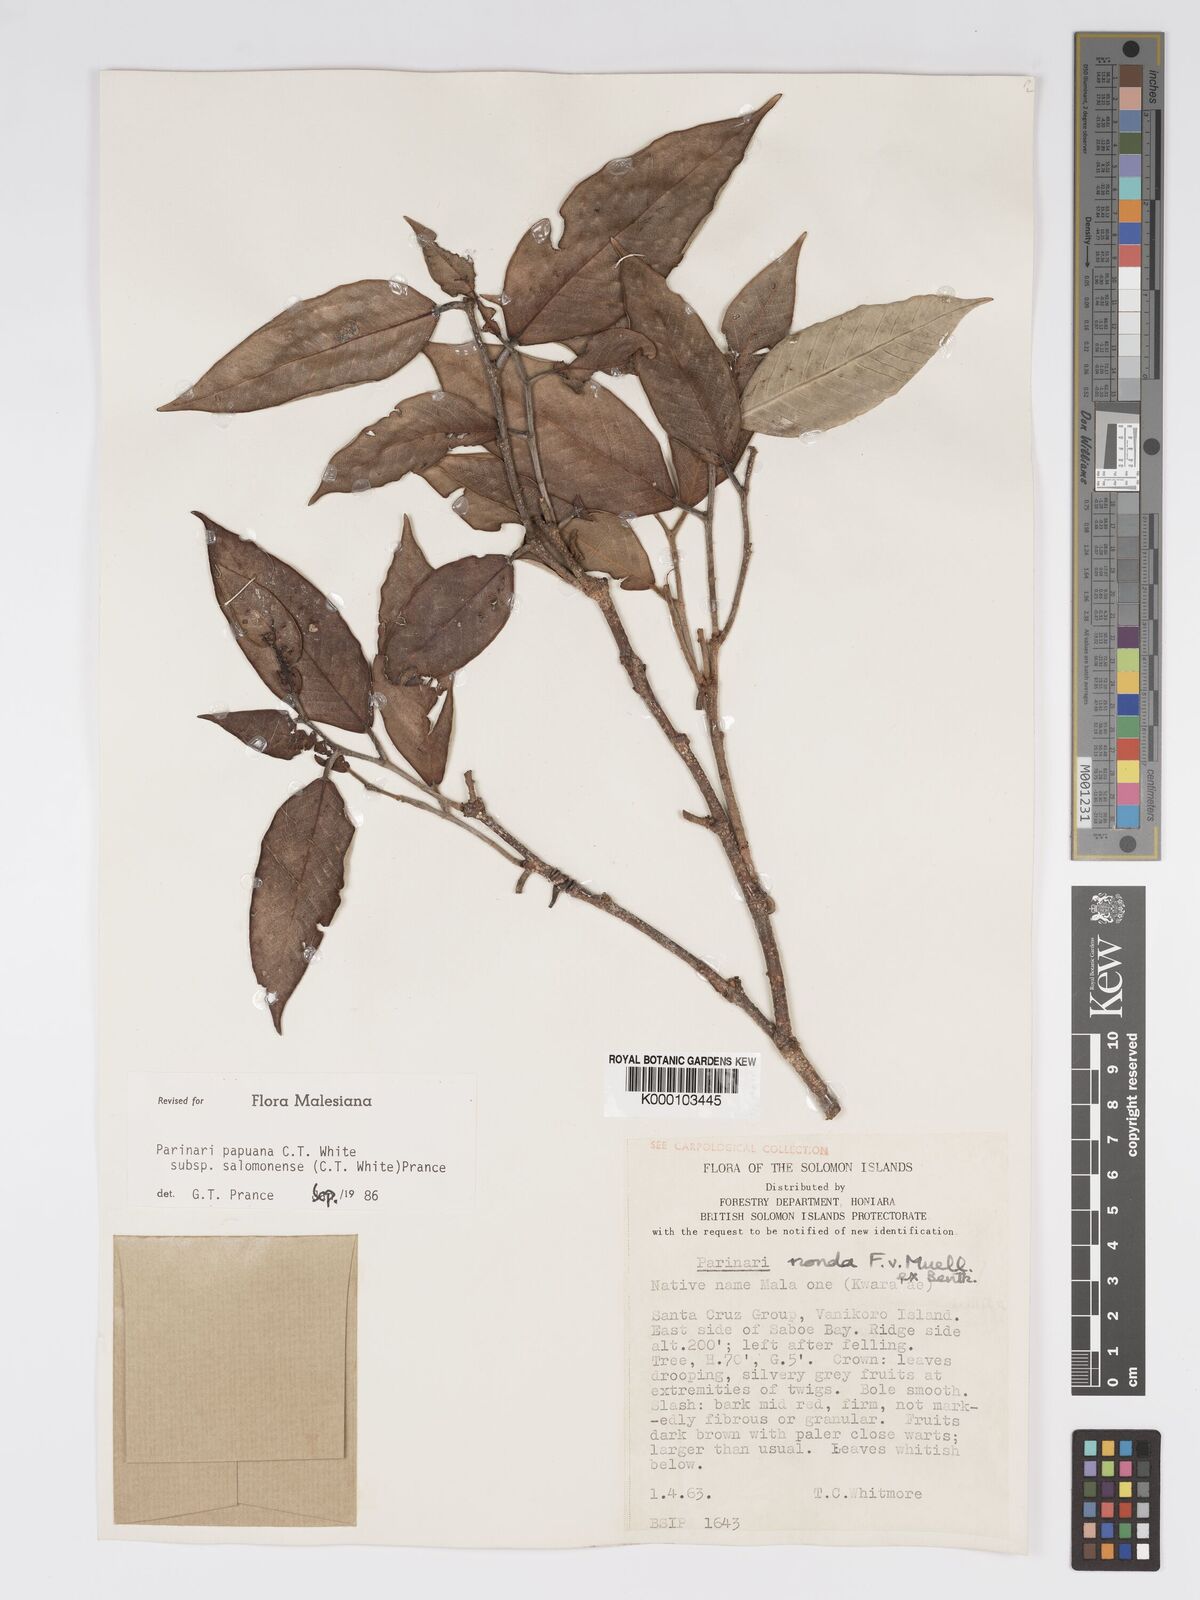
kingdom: Plantae
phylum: Tracheophyta
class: Magnoliopsida
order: Malpighiales
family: Chrysobalanaceae
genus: Parinari
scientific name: Parinari papuana
